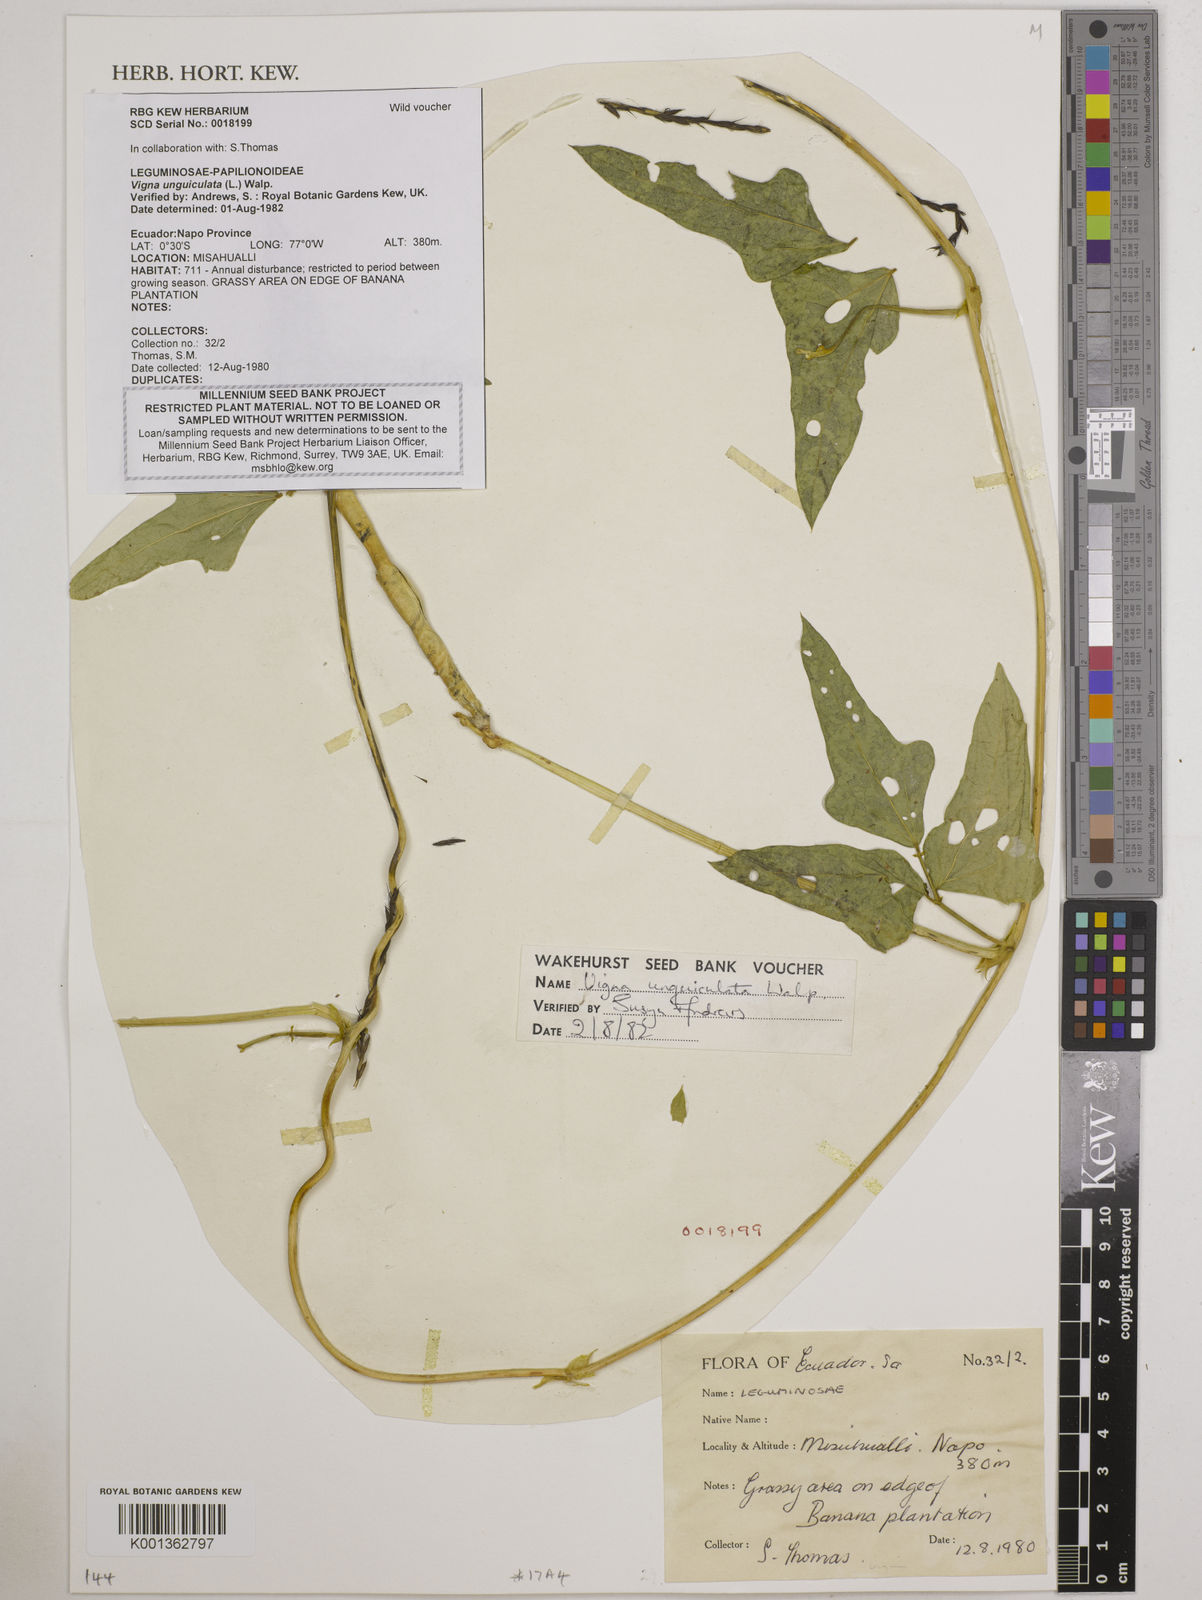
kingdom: Plantae
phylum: Tracheophyta
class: Magnoliopsida
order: Fabales
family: Fabaceae
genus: Vigna
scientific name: Vigna unguiculata
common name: Cowpea
